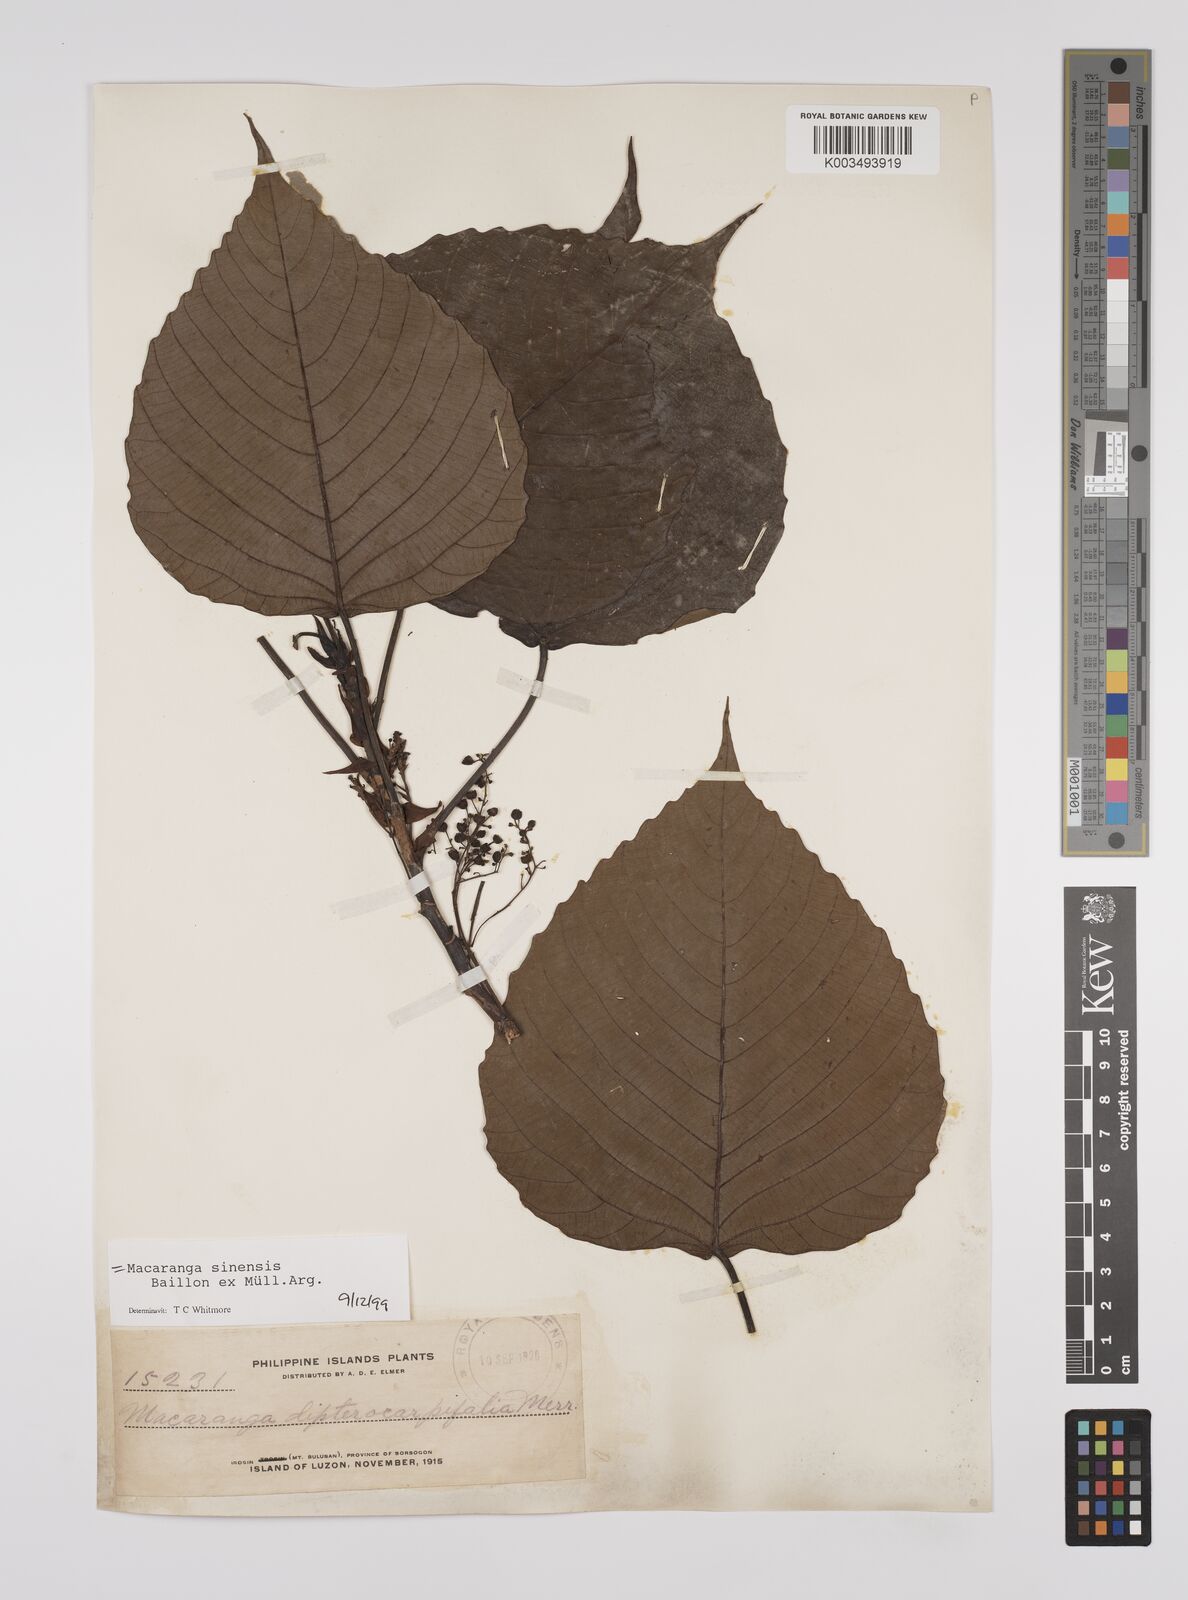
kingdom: Plantae
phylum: Tracheophyta
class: Magnoliopsida
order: Malpighiales
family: Euphorbiaceae
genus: Macaranga
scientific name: Macaranga sinensis
